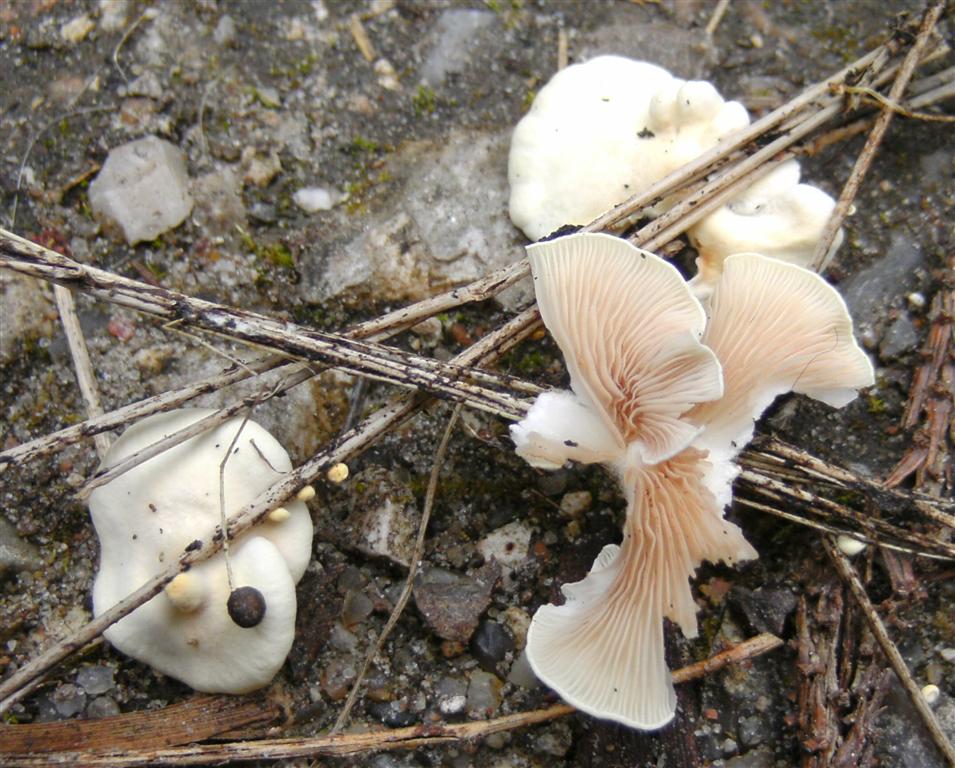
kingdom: Fungi
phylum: Basidiomycota
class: Agaricomycetes
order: Agaricales
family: Crepidotaceae
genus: Crepidotus
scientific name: Crepidotus luteolus
